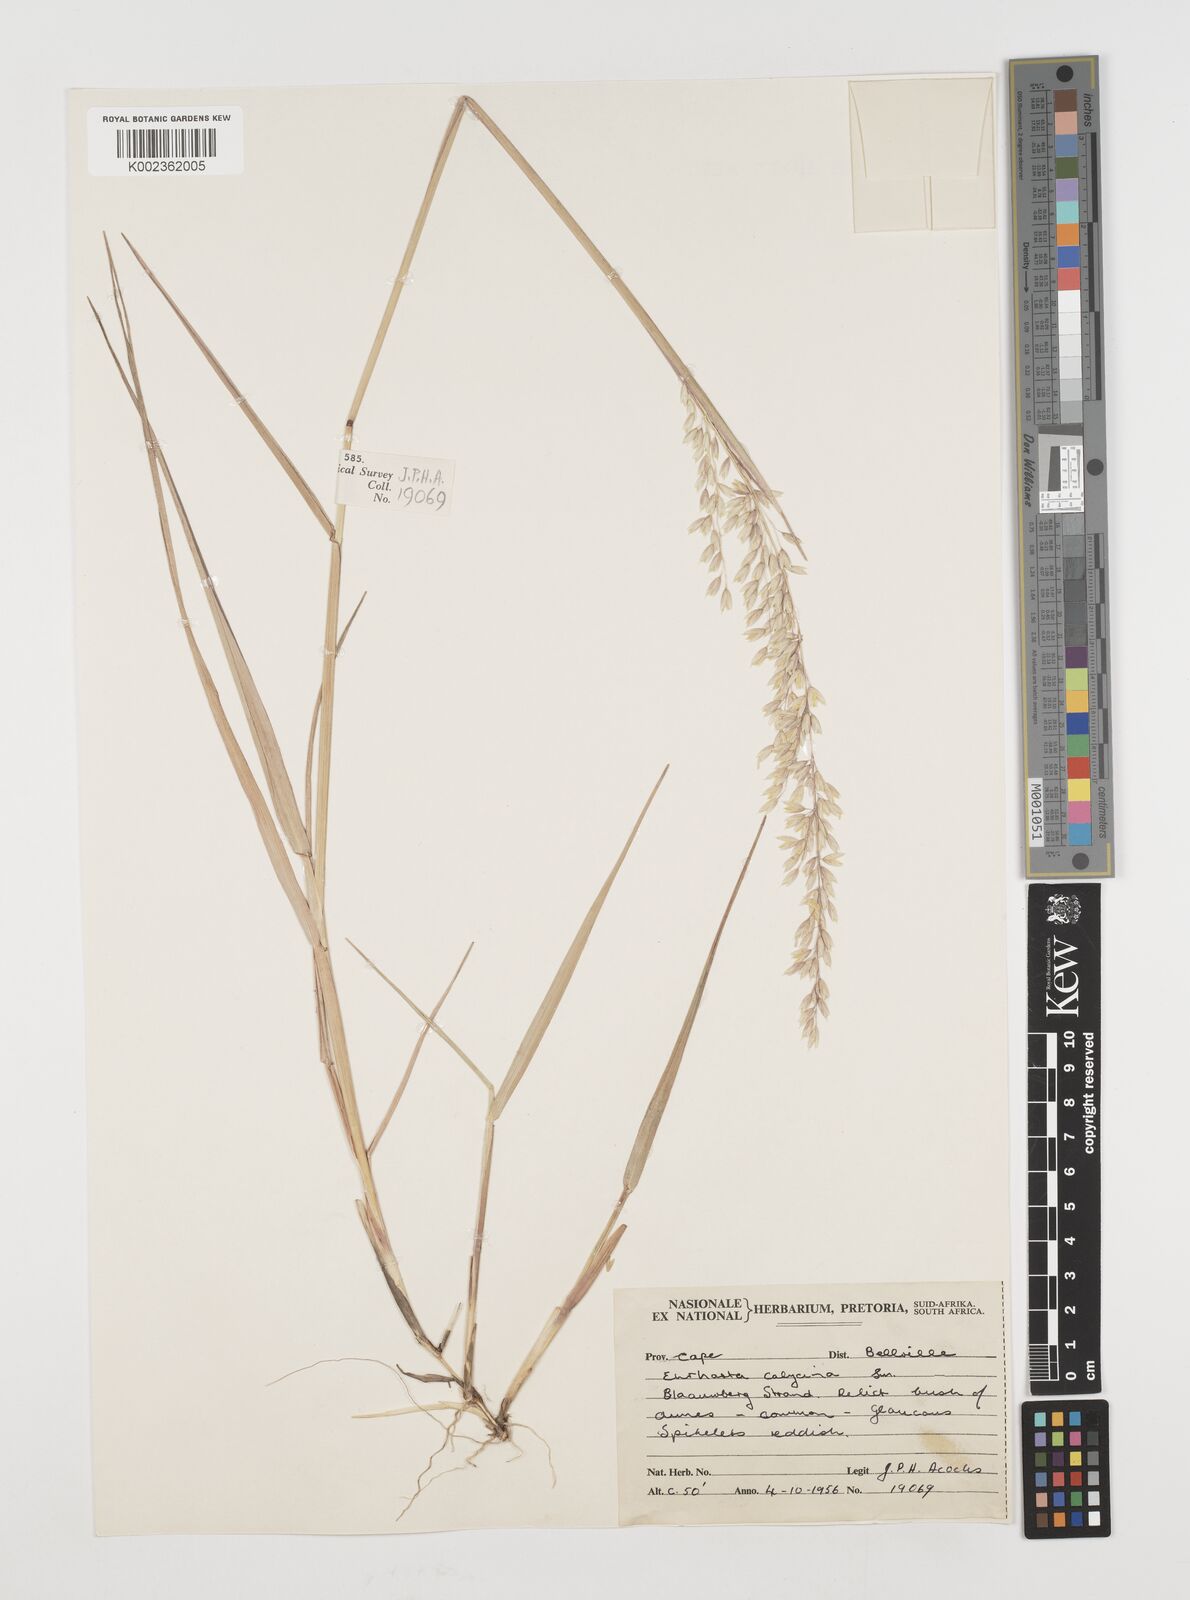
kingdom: Plantae
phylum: Tracheophyta
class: Liliopsida
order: Poales
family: Poaceae
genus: Ehrharta
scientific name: Ehrharta calycina
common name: Perennial veldtgrass
